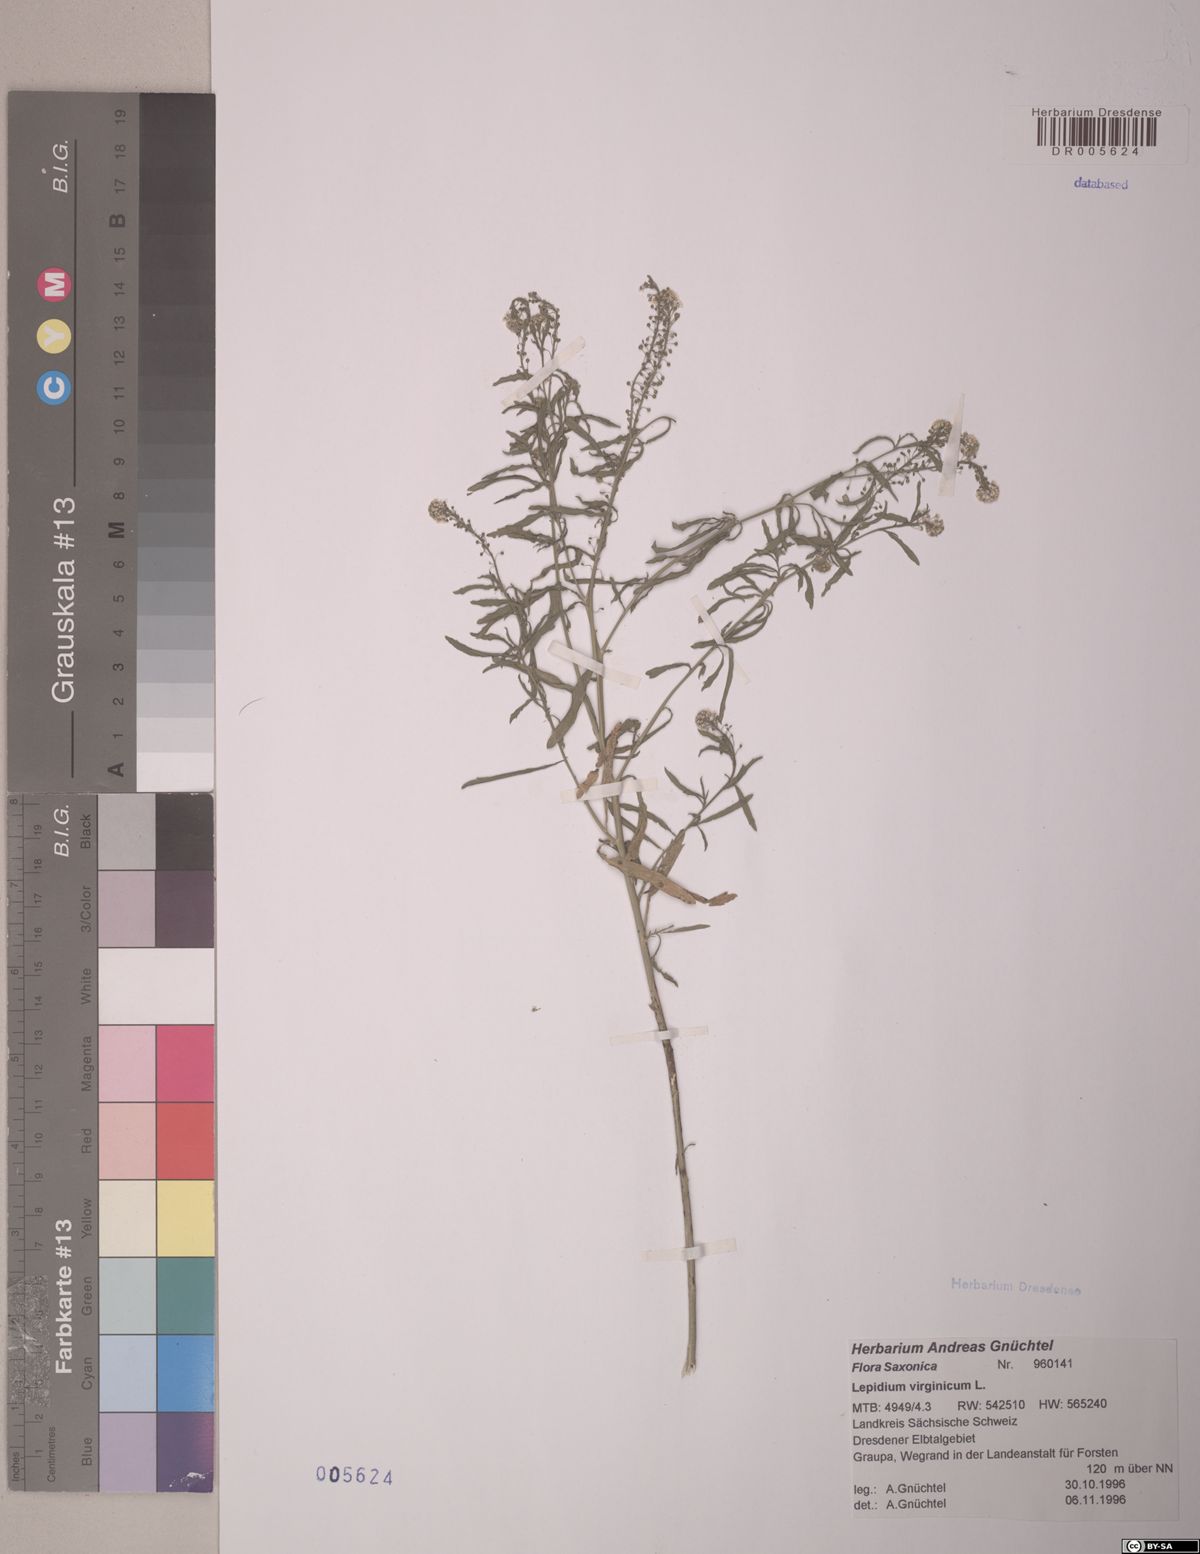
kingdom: Plantae
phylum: Tracheophyta
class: Magnoliopsida
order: Brassicales
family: Brassicaceae
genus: Lepidium
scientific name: Lepidium virginicum
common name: Least pepperwort
